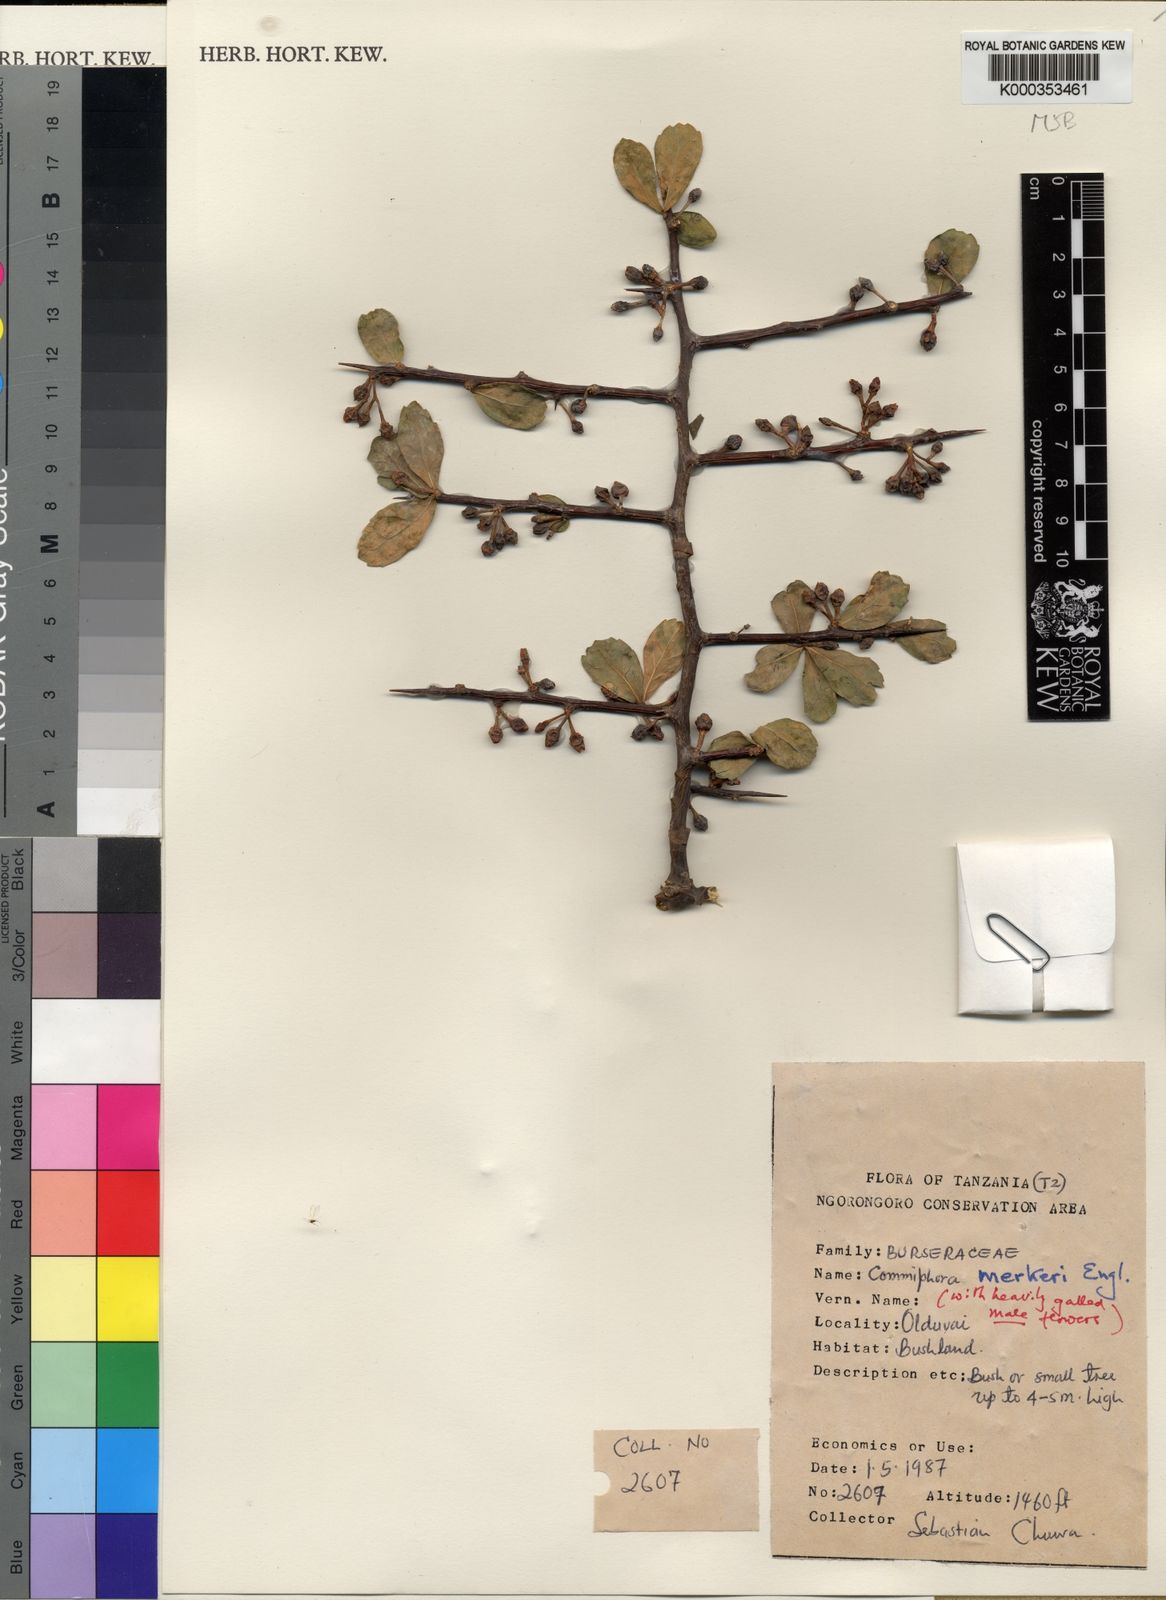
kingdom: Plantae
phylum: Tracheophyta
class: Magnoliopsida
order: Sapindales
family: Burseraceae
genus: Commiphora
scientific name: Commiphora viminea
